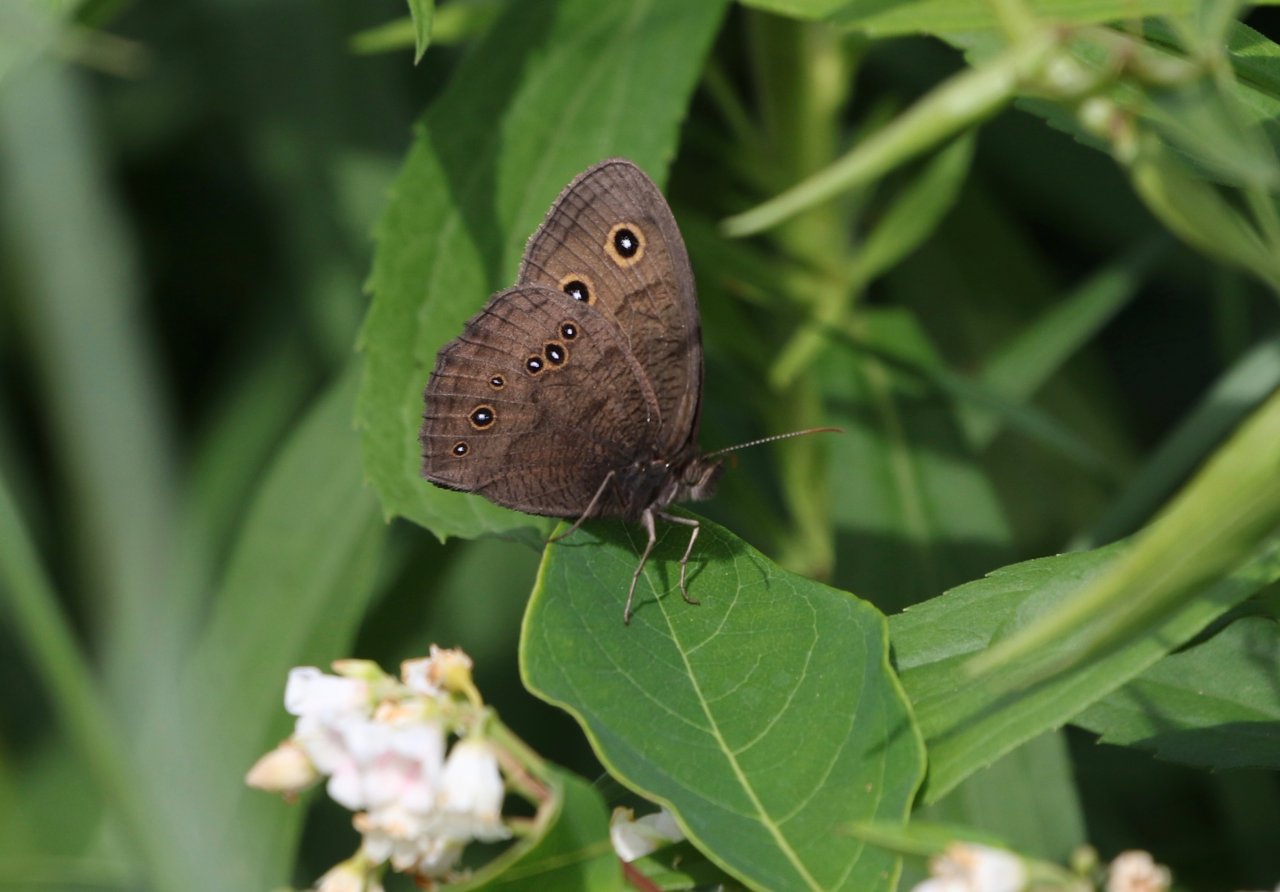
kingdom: Animalia
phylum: Arthropoda
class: Insecta
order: Lepidoptera
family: Nymphalidae
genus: Cercyonis
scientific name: Cercyonis pegala
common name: Common Wood-Nymph
